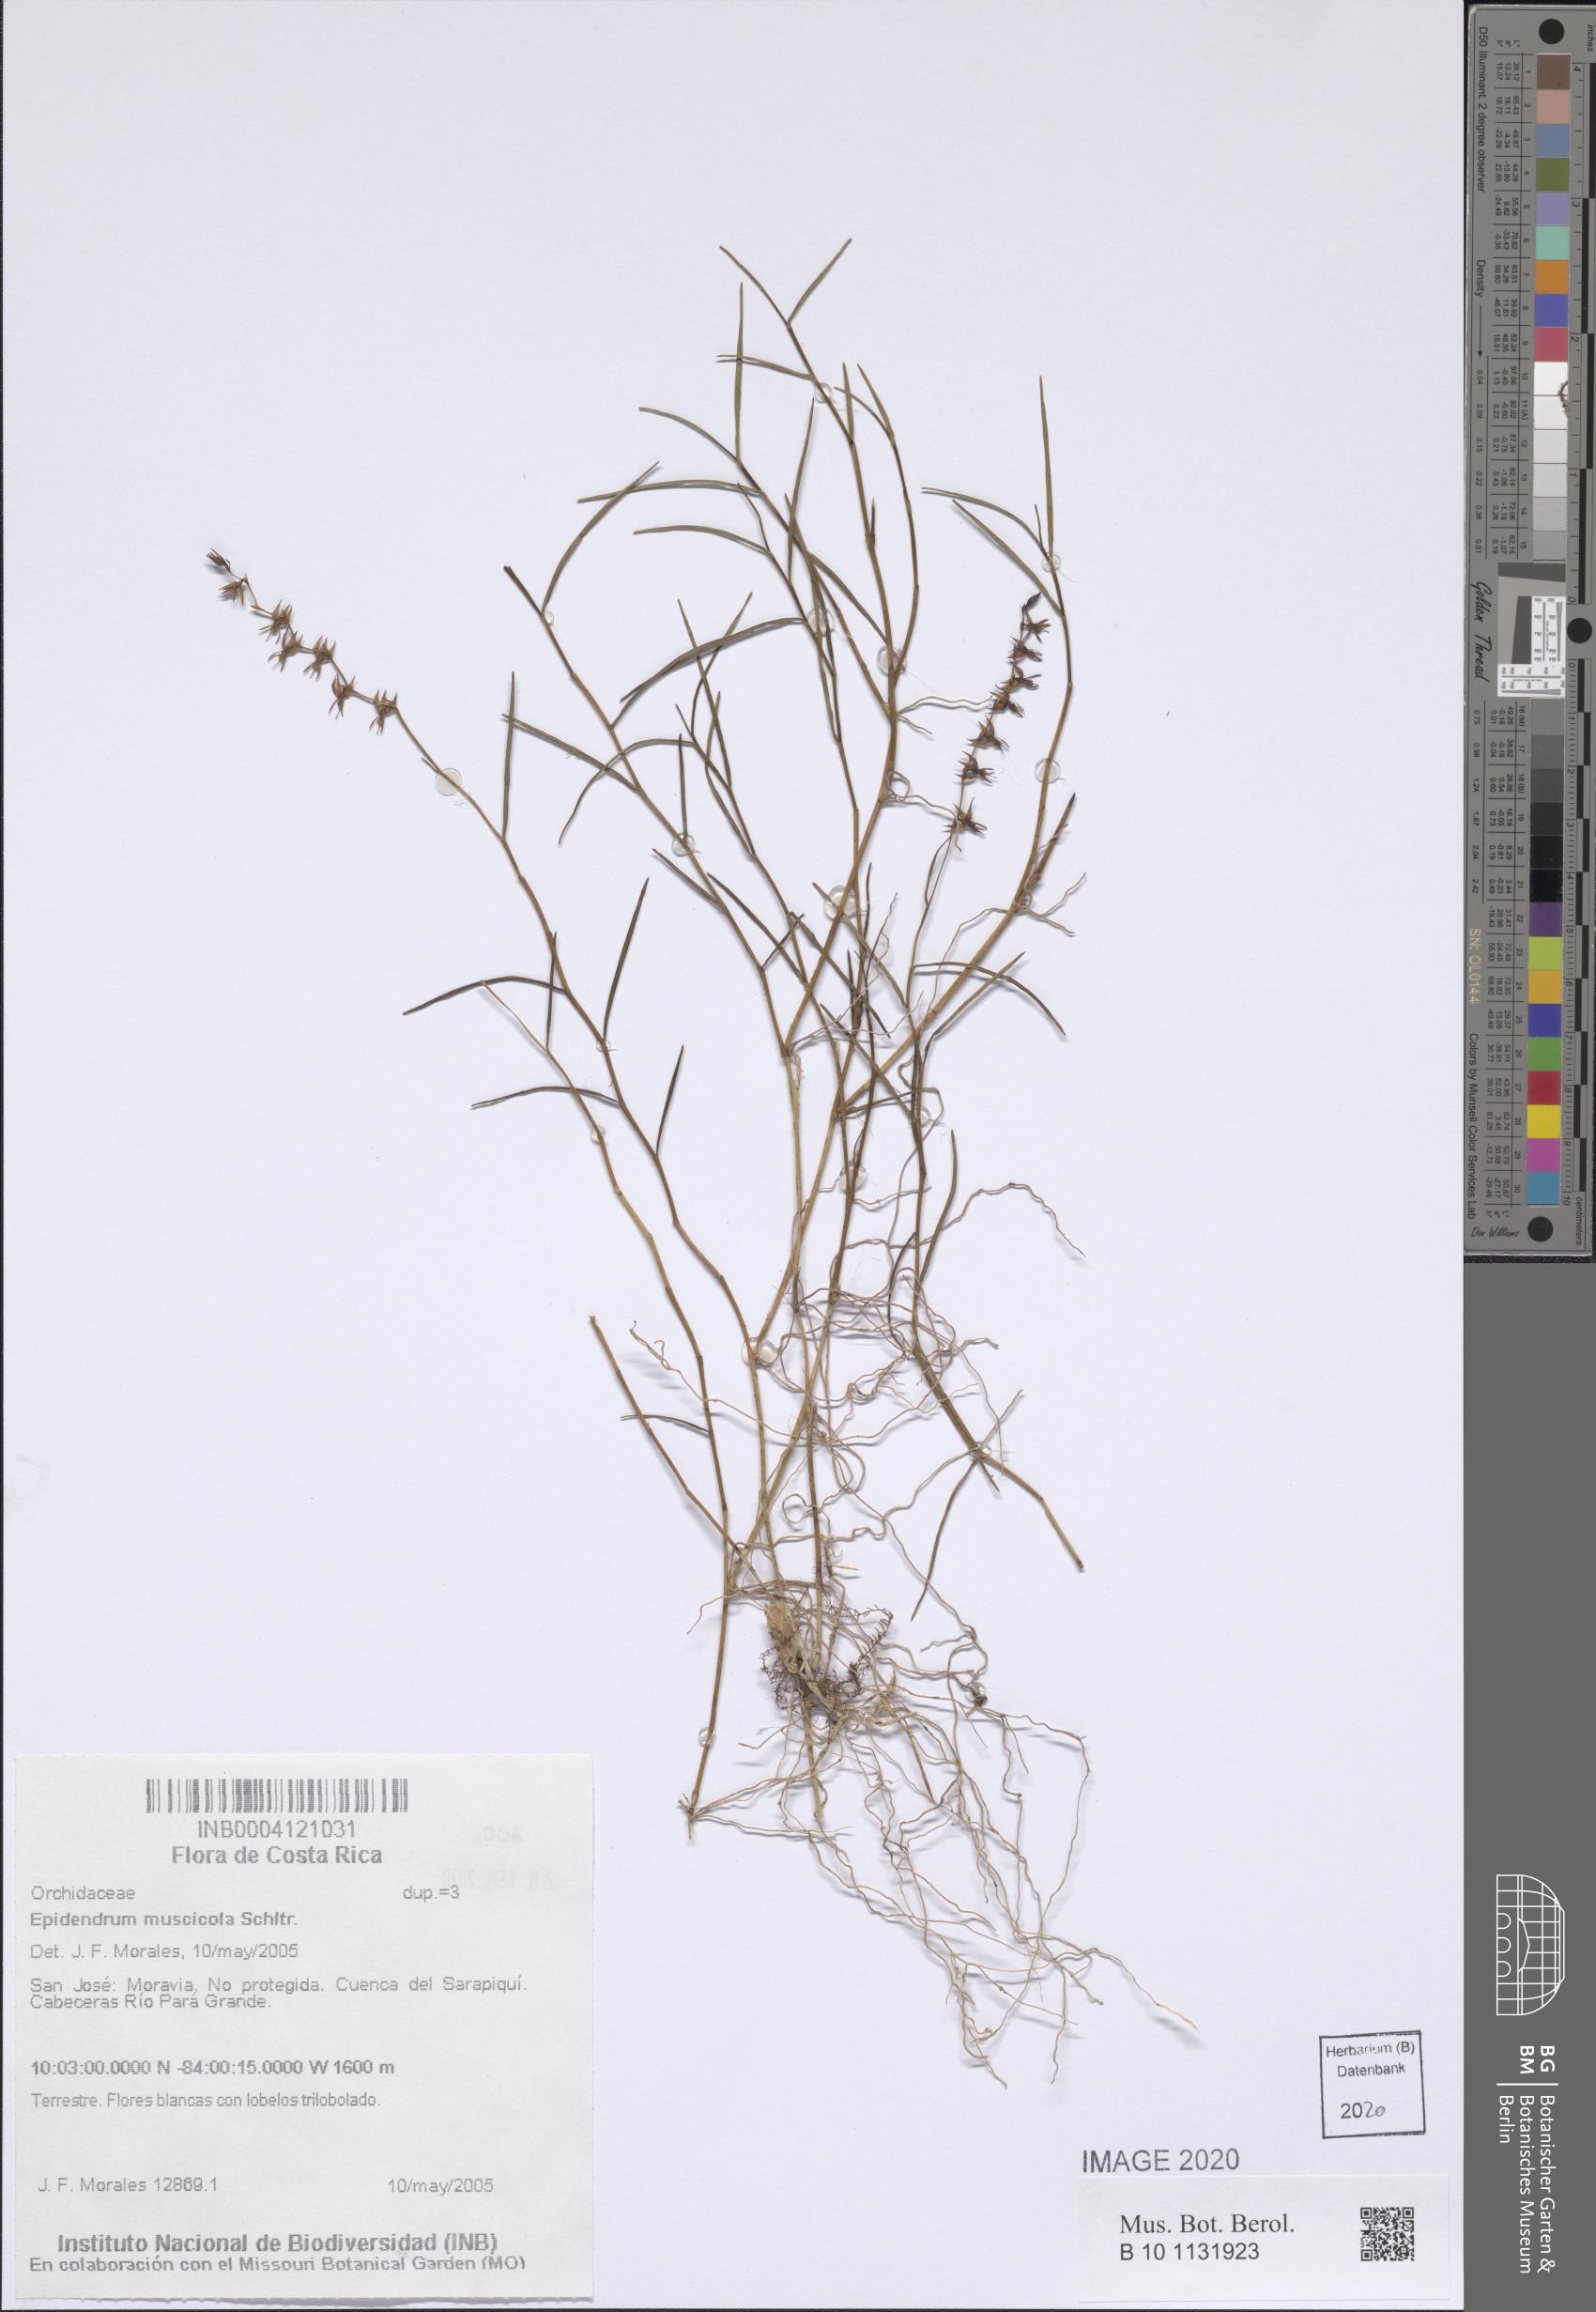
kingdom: Plantae
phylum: Tracheophyta
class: Liliopsida
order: Asparagales
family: Orchidaceae
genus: Epidendrum
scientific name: Epidendrum muscicola
